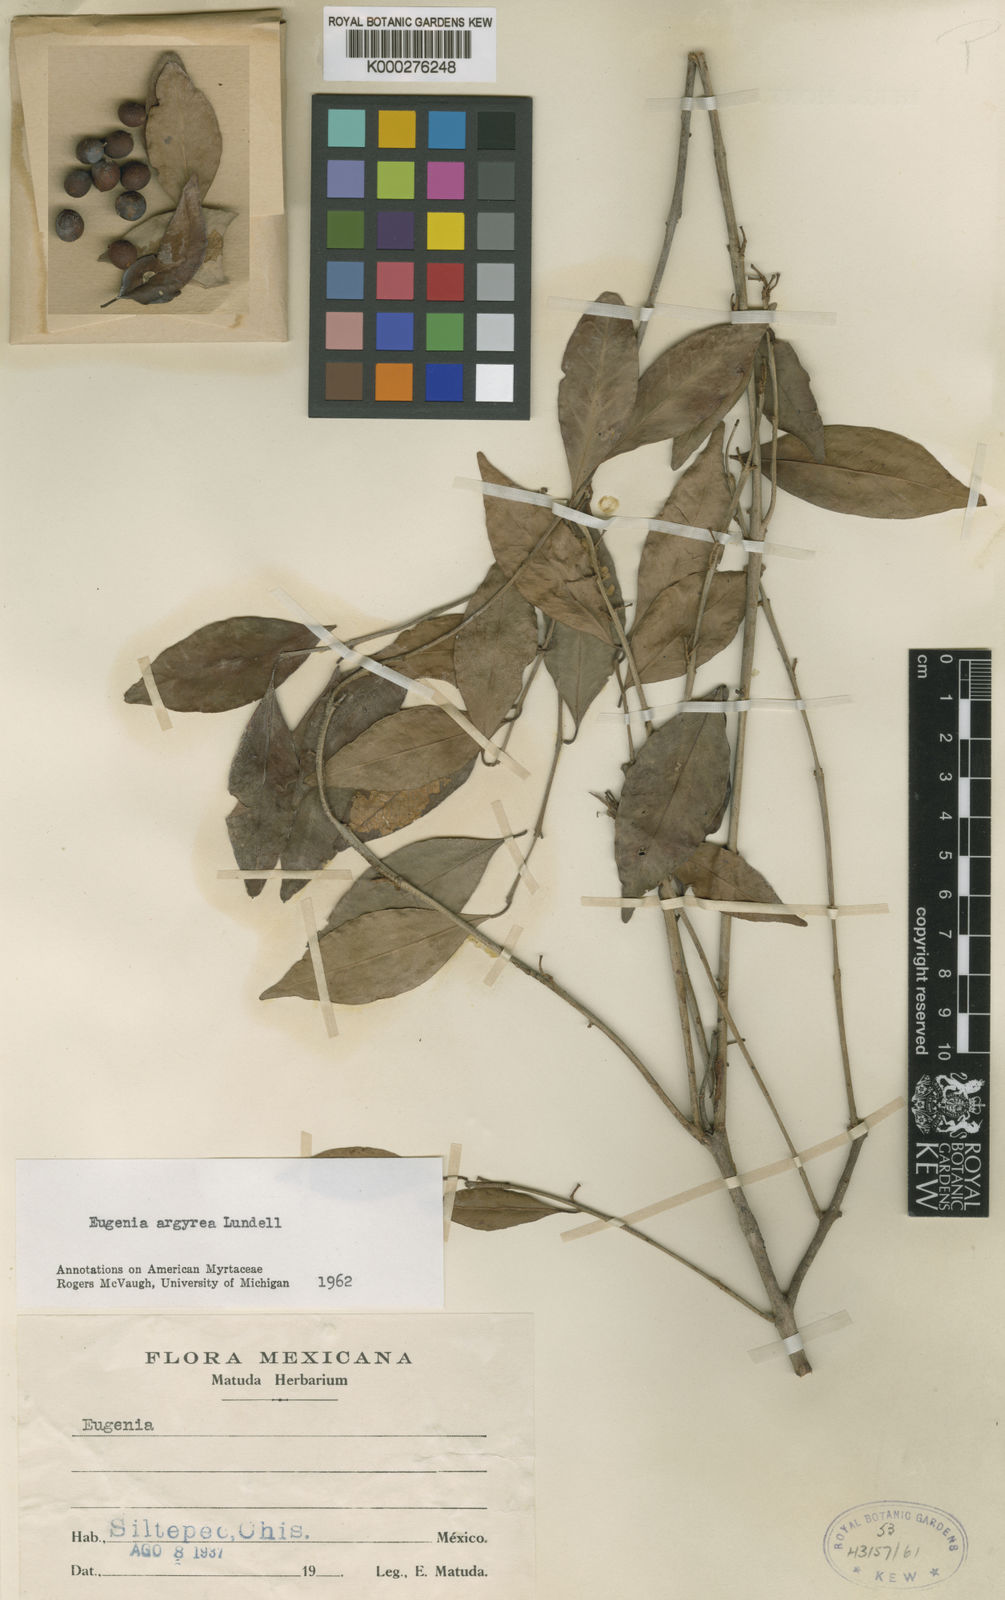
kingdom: Plantae
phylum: Tracheophyta
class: Magnoliopsida
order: Myrtales
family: Myrtaceae
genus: Eugenia
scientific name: Eugenia galalonensis
